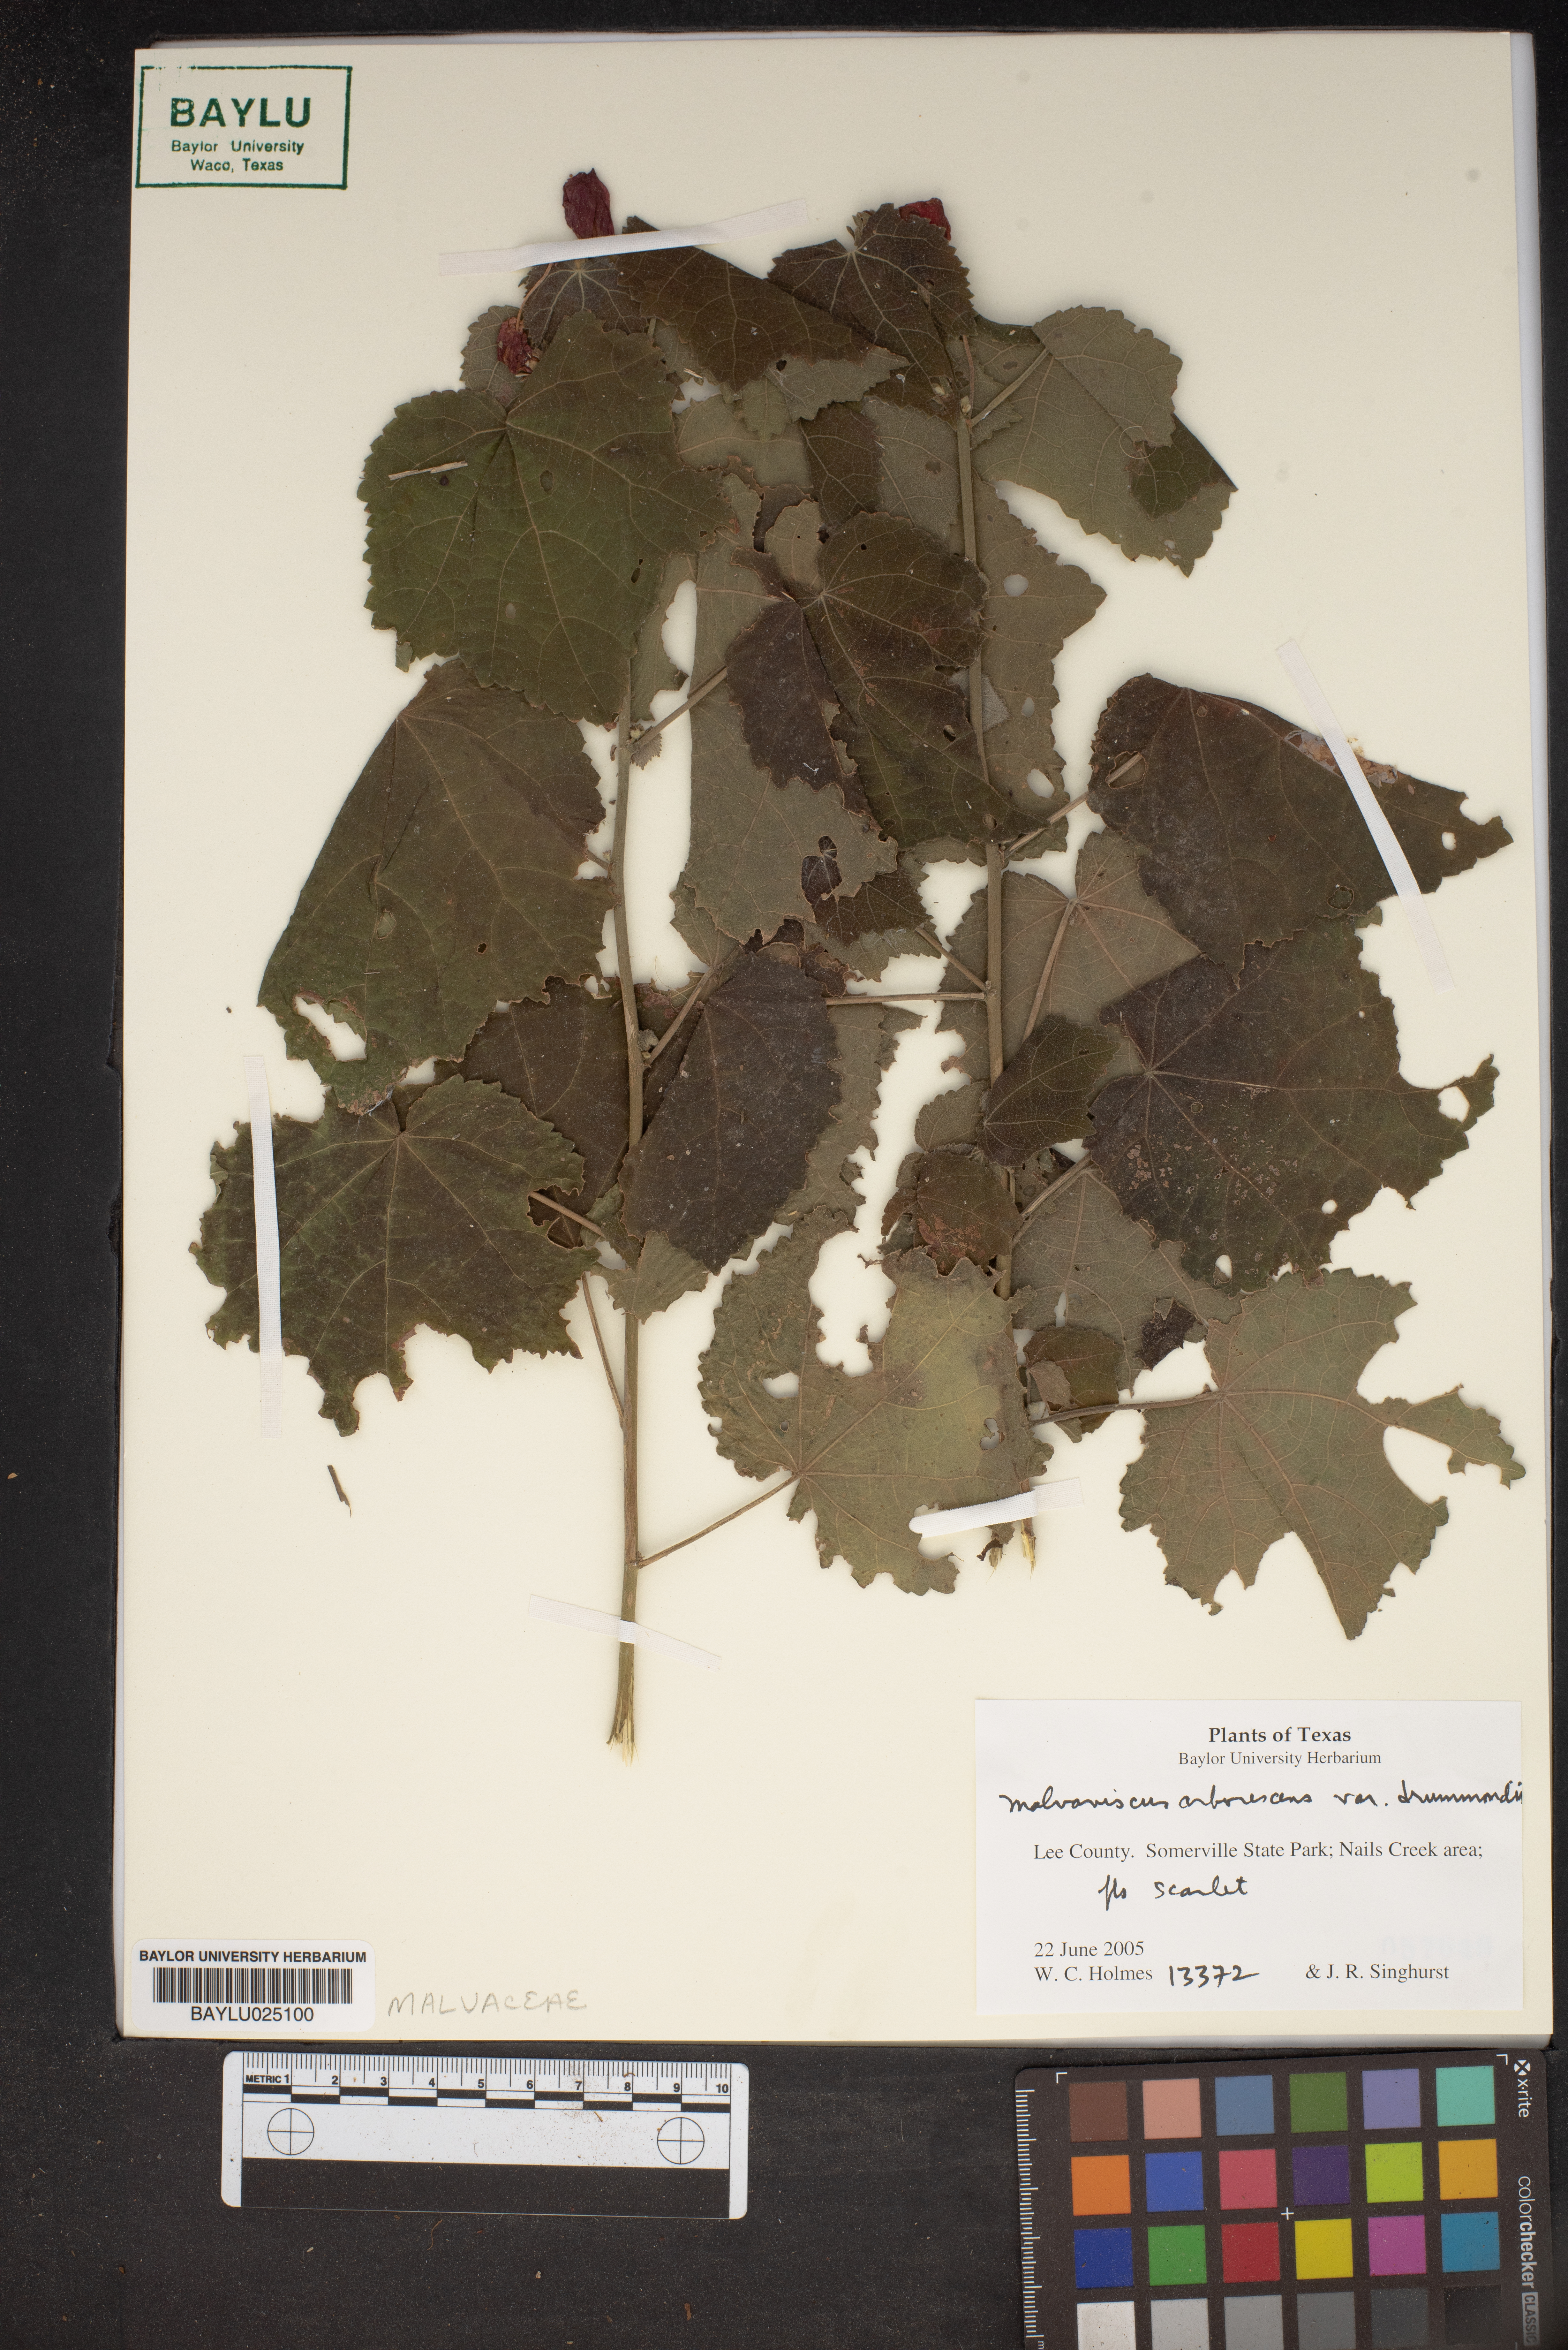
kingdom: Plantae
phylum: Tracheophyta
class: Magnoliopsida
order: Malvales
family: Malvaceae
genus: Malvaviscus
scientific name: Malvaviscus arboreus
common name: Wax mallow
